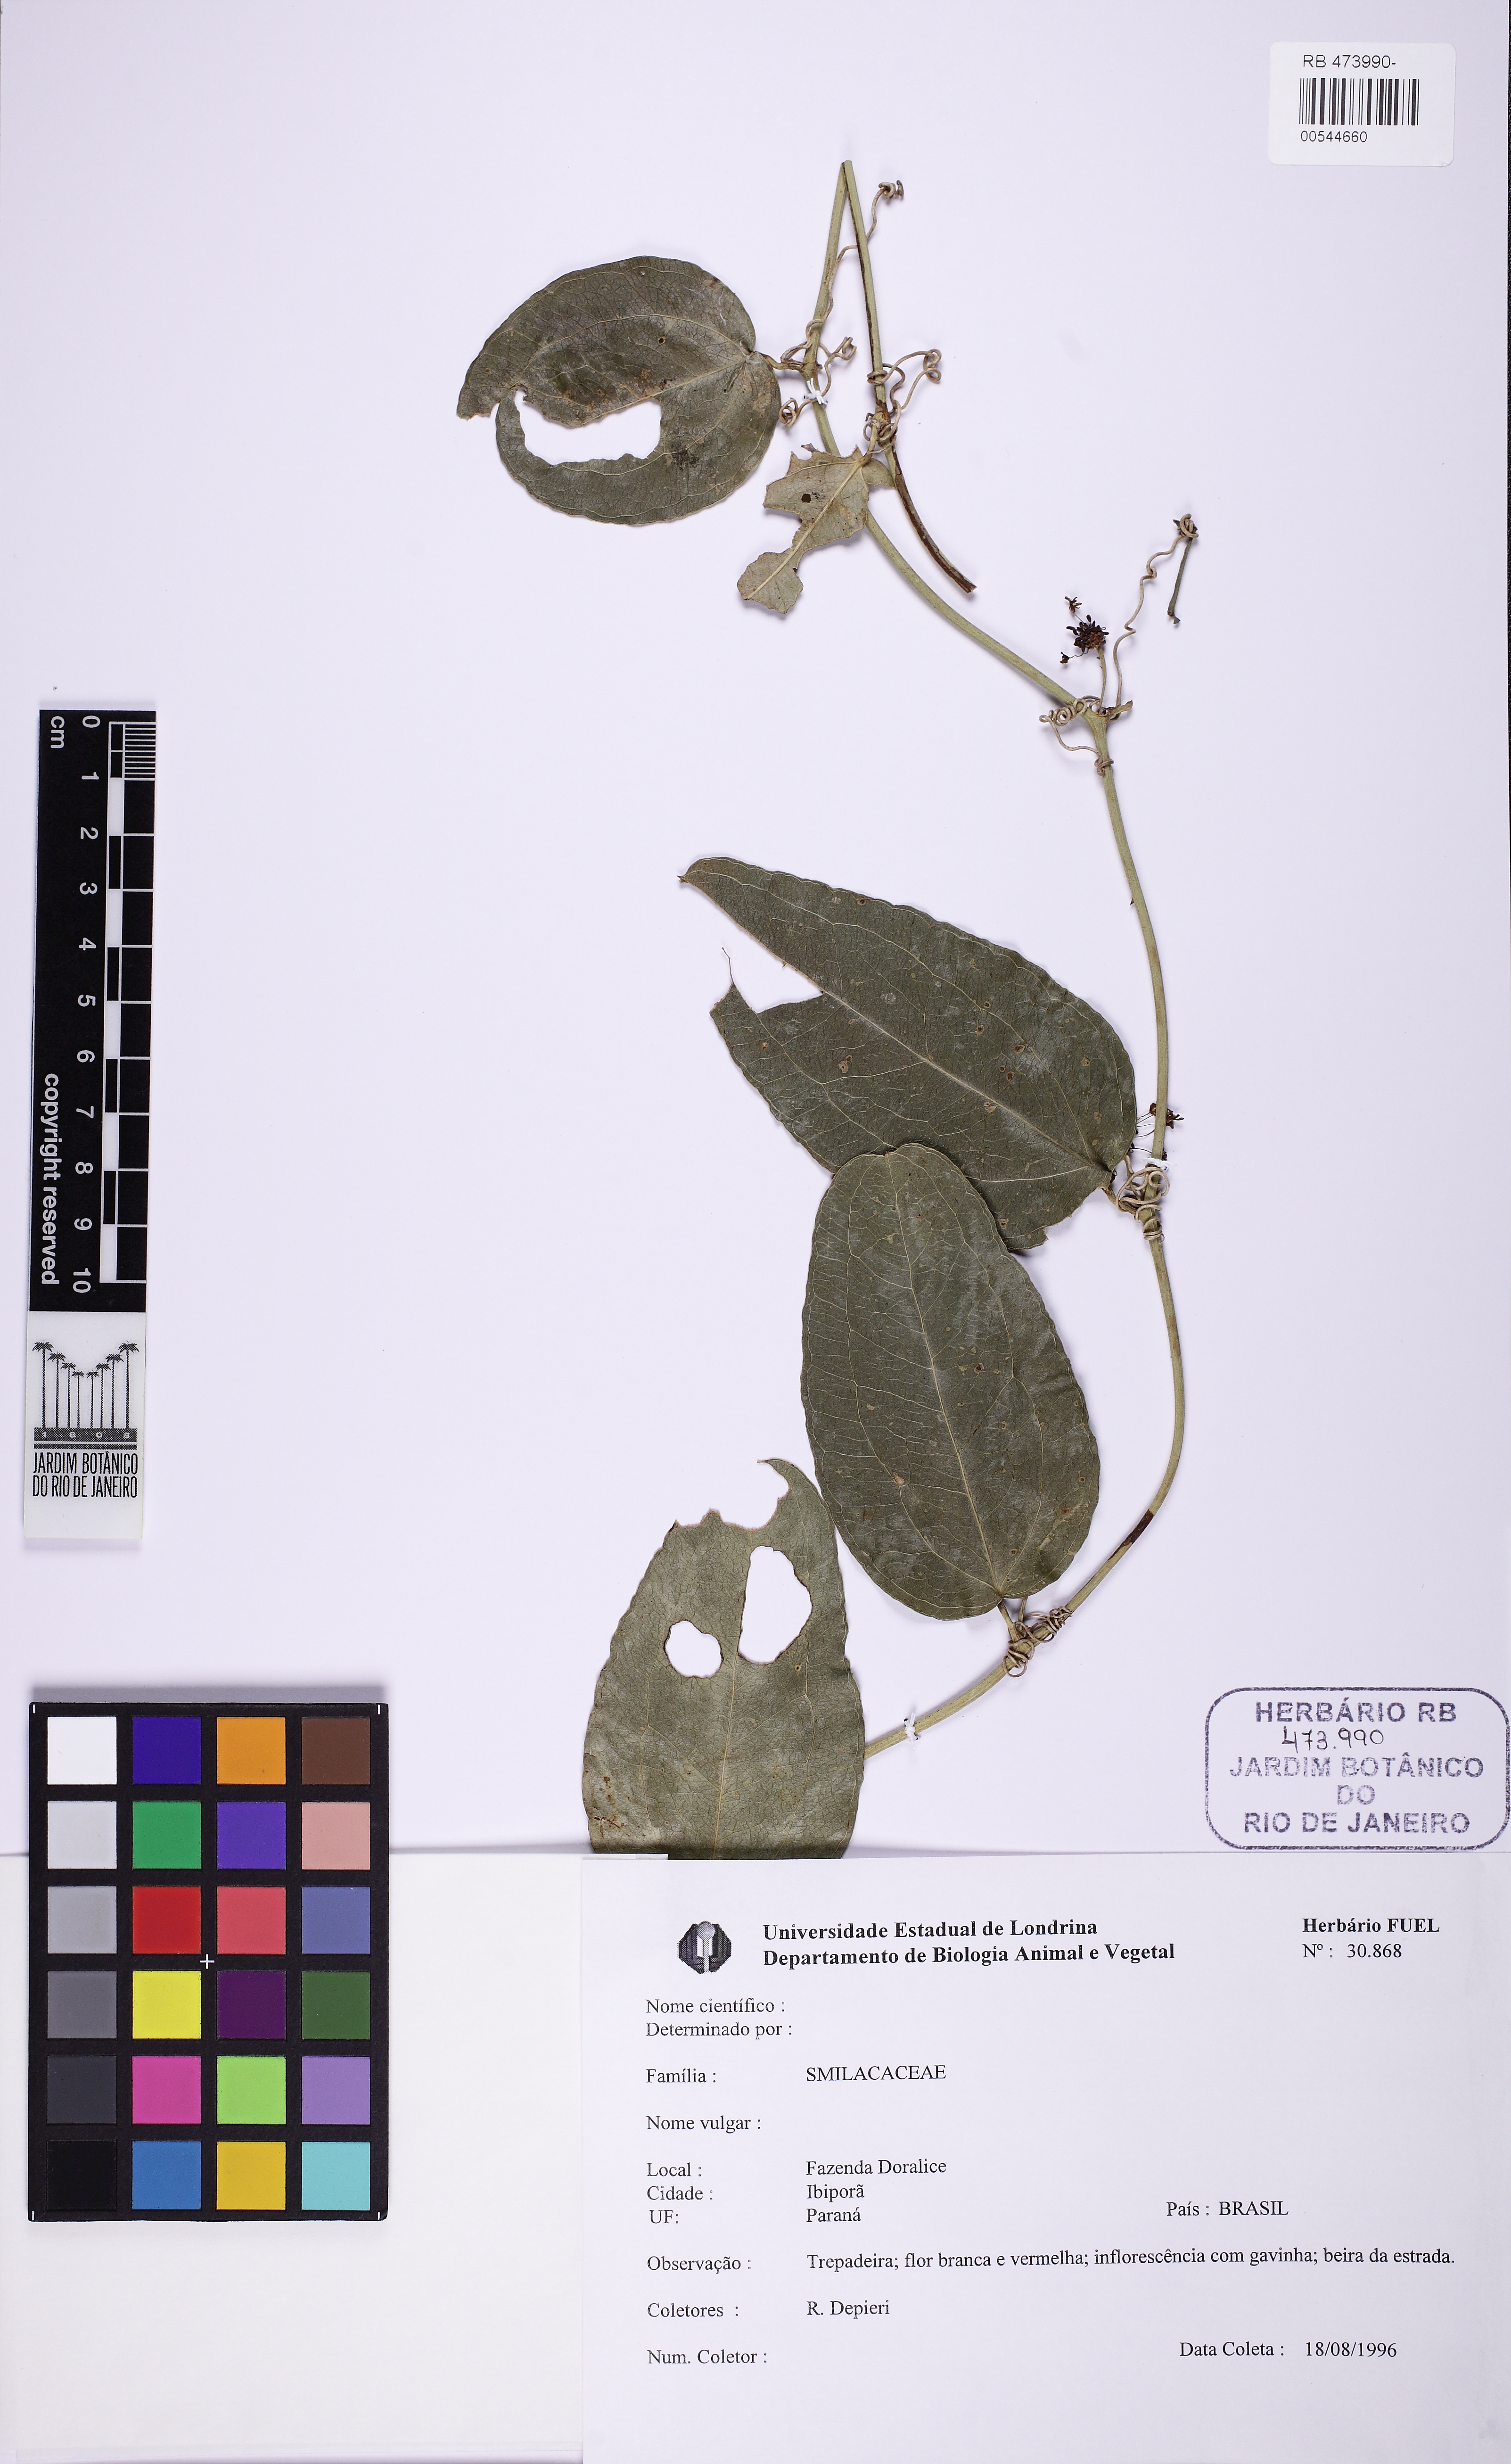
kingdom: Plantae
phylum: Tracheophyta
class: Liliopsida
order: Liliales
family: Smilacaceae
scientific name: Smilacaceae
